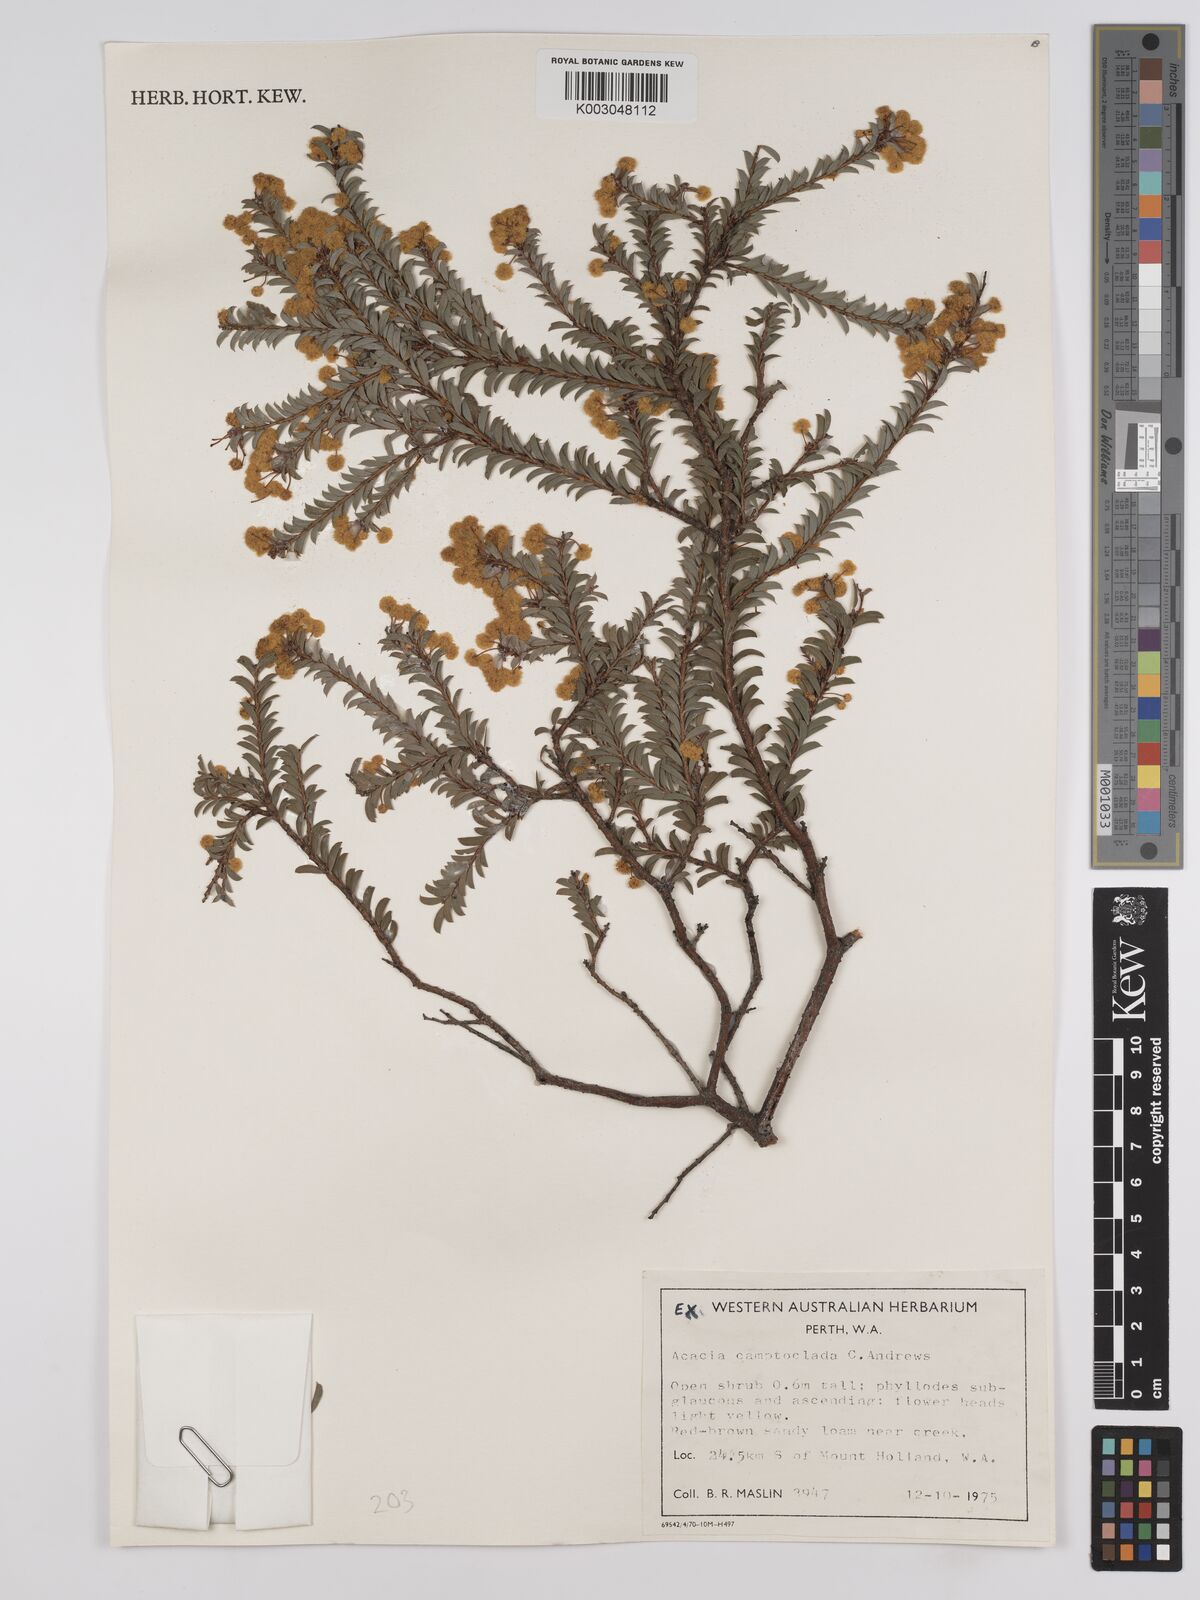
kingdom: Plantae
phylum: Tracheophyta
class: Magnoliopsida
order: Fabales
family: Fabaceae
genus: Acacia
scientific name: Acacia camptoclada
